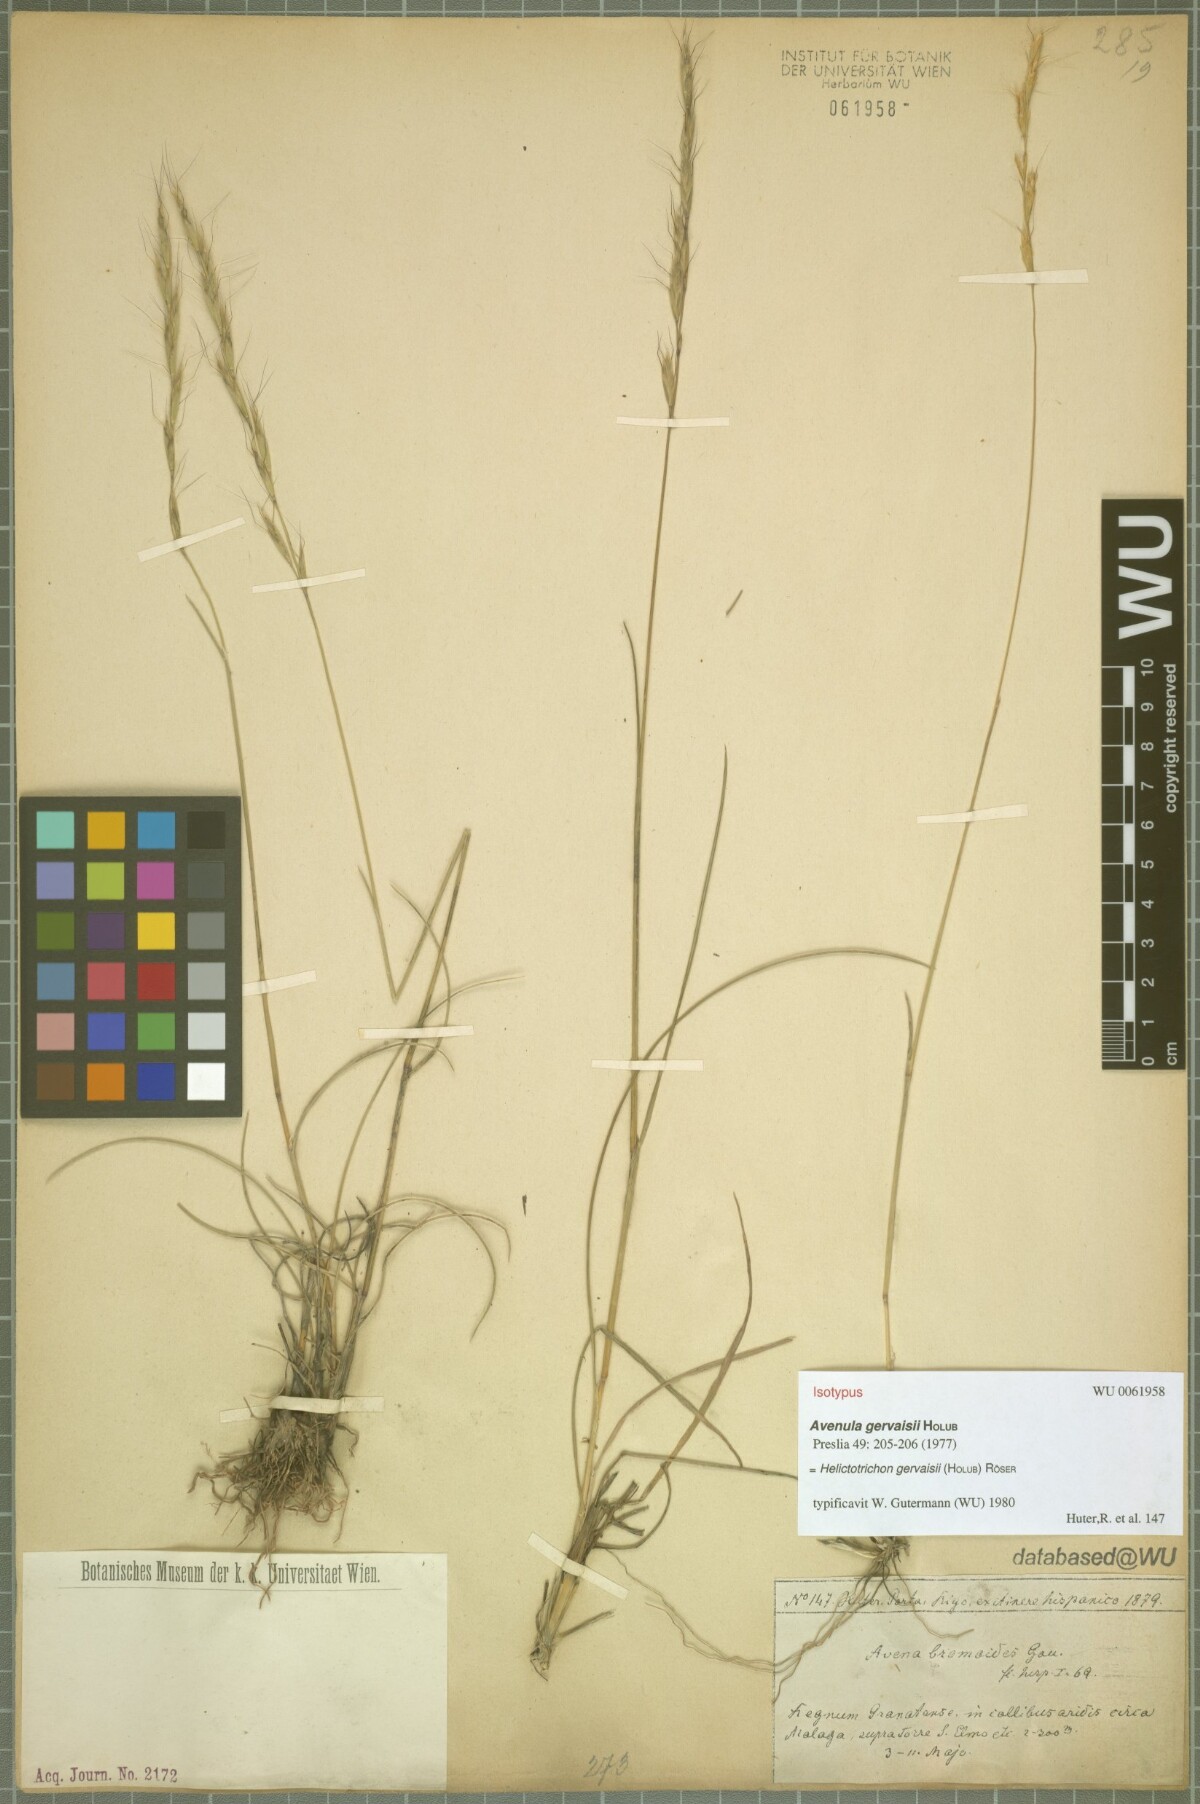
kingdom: Plantae
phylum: Tracheophyta
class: Liliopsida
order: Poales
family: Poaceae
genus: Helictochloa
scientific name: Helictochloa gervaisii
